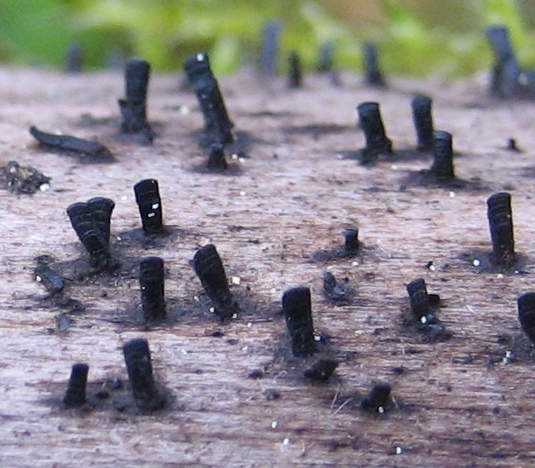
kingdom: Fungi
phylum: Ascomycota
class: Eurotiomycetes
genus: Glyphium
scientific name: Glyphium elatum
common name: kuløkse
